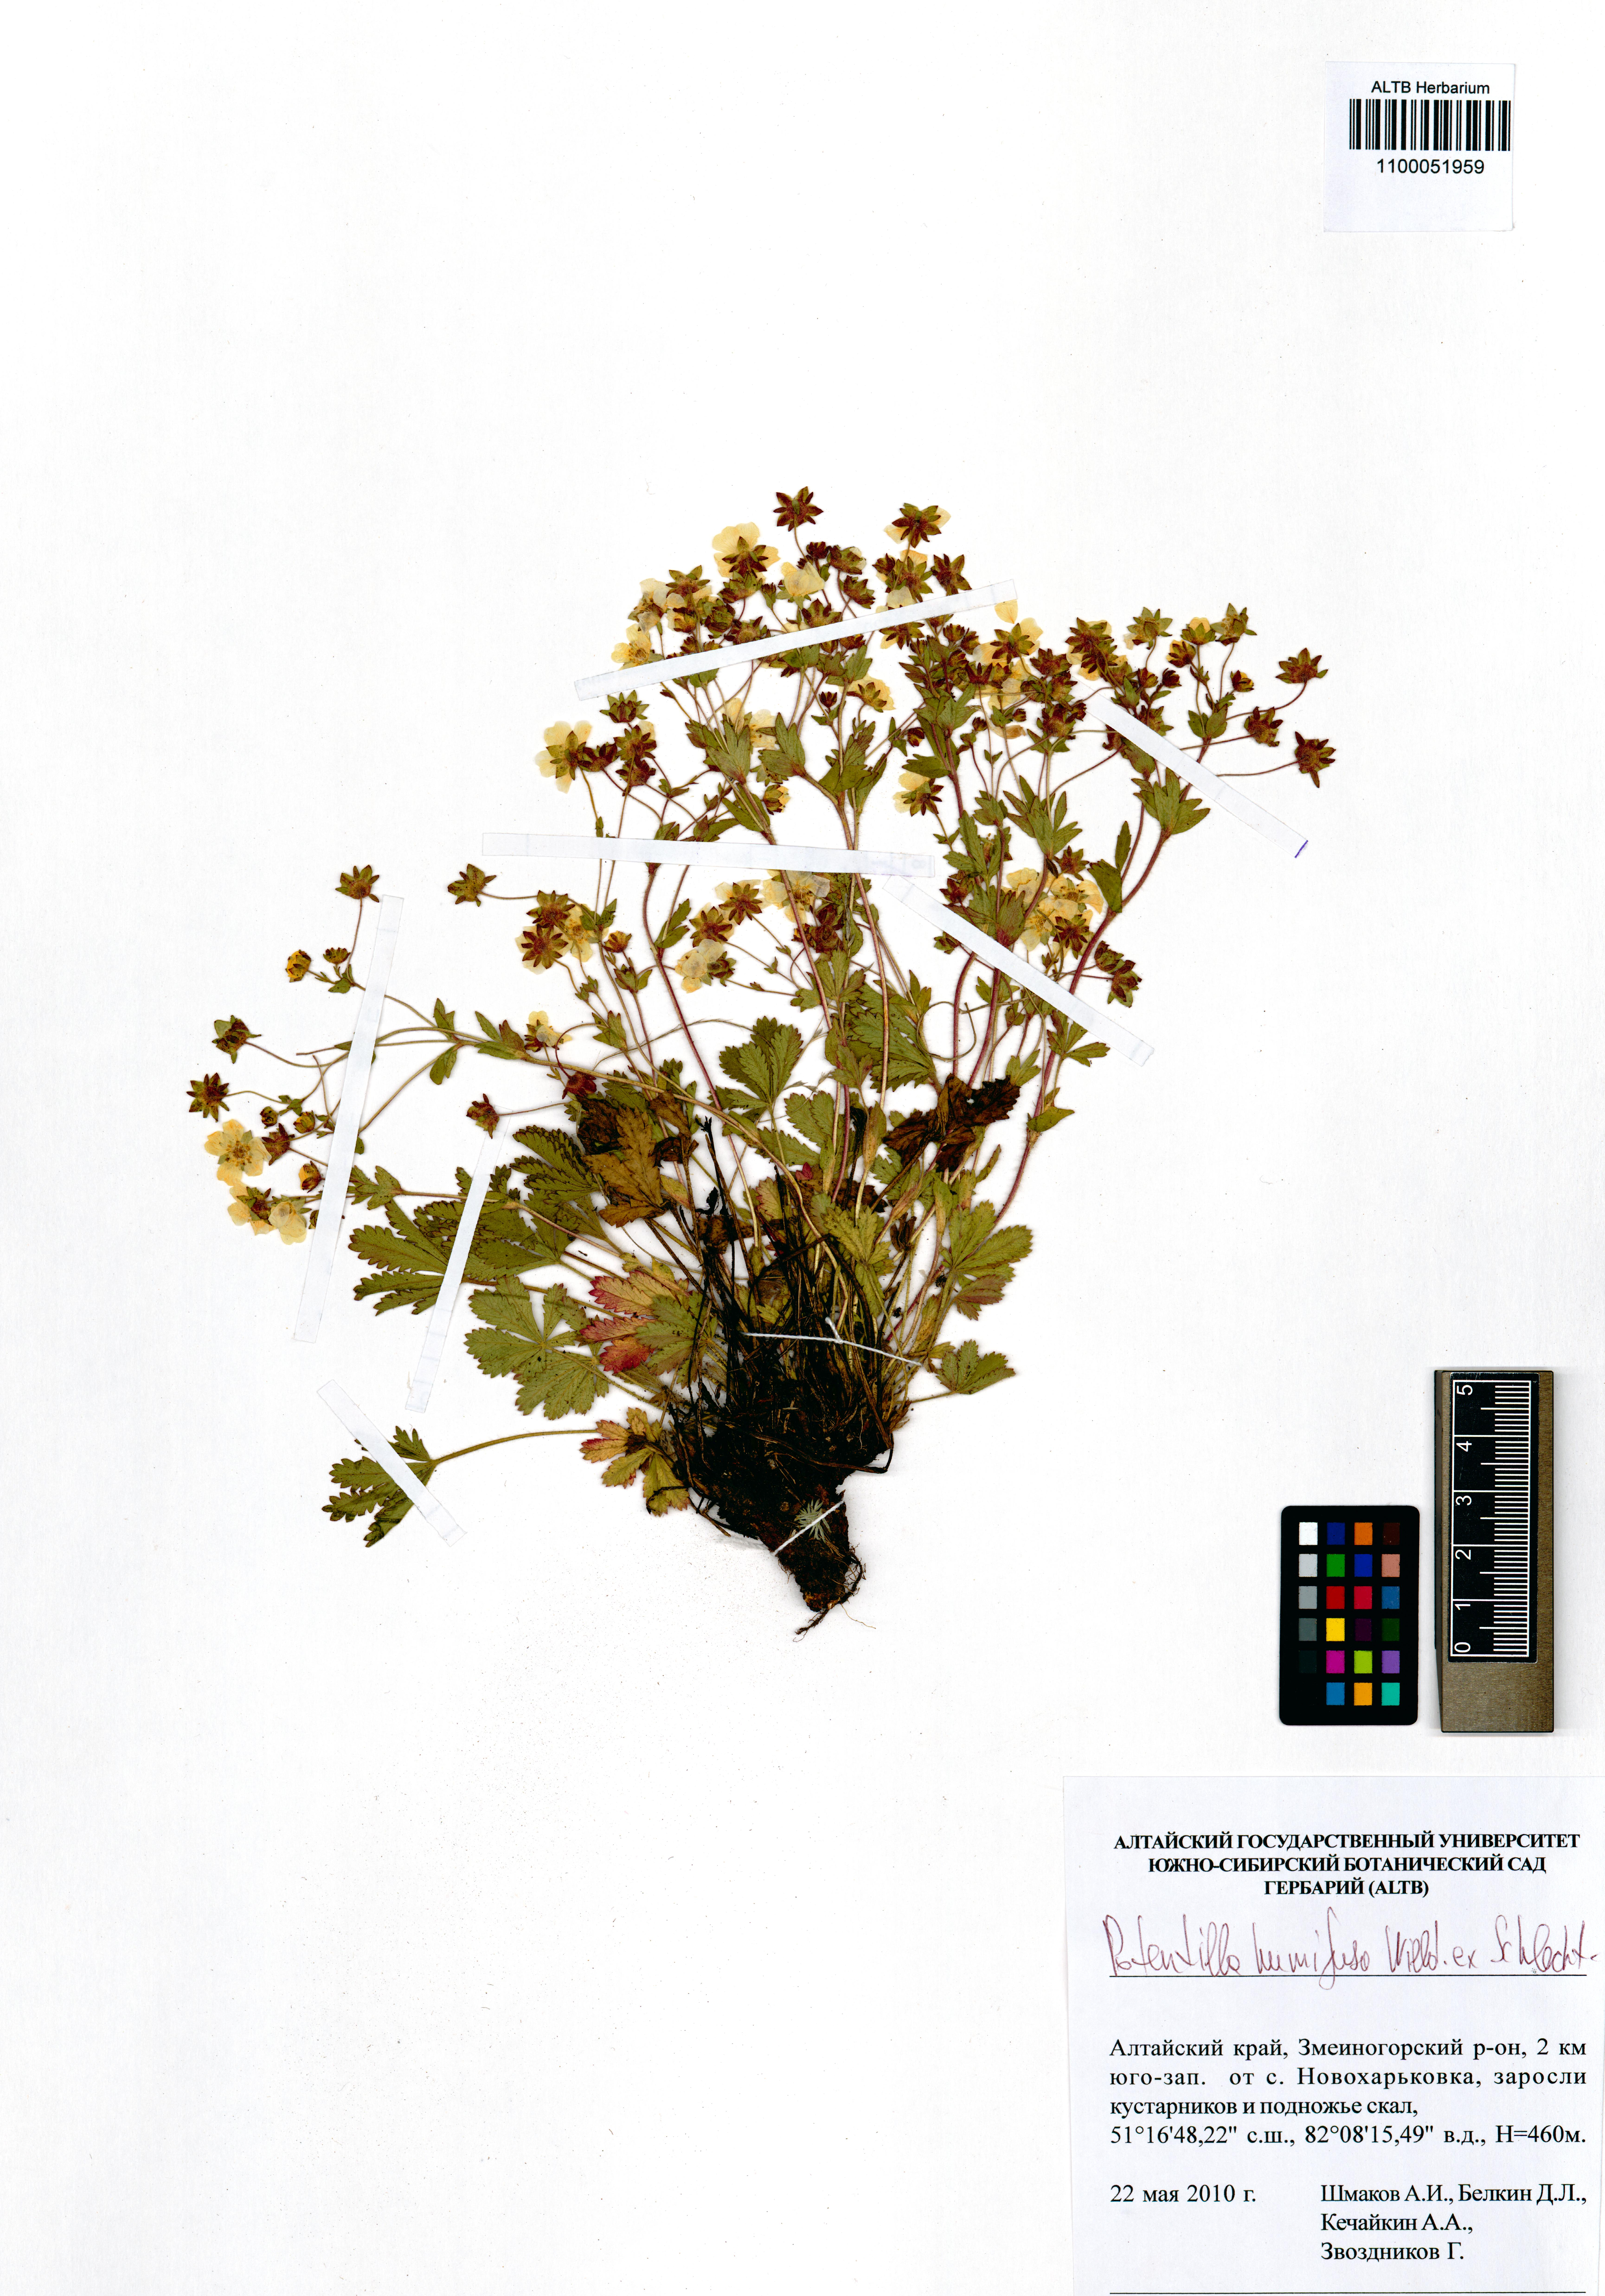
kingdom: Plantae
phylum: Tracheophyta
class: Magnoliopsida
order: Rosales
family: Rosaceae
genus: Potentilla
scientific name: Potentilla humifusa
